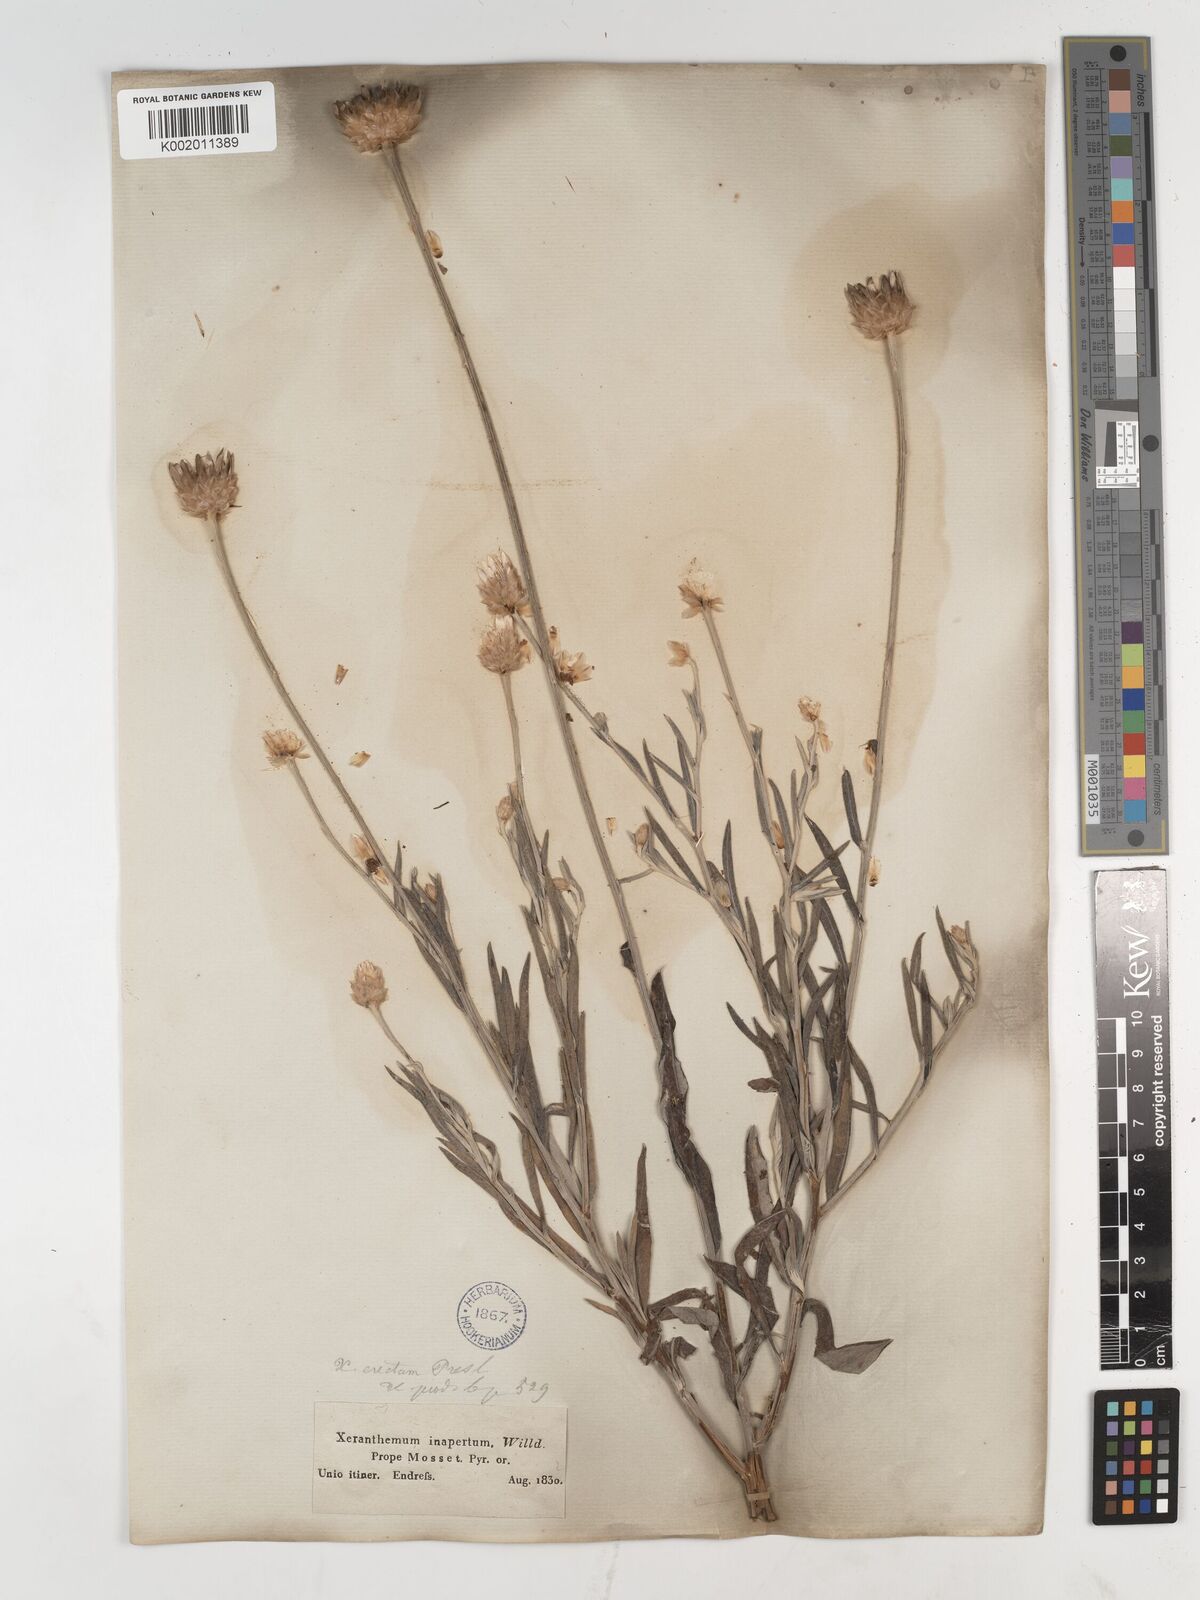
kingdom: Plantae
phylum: Tracheophyta
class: Magnoliopsida
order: Asterales
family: Asteraceae
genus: Xeranthemum
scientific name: Xeranthemum inapertum
